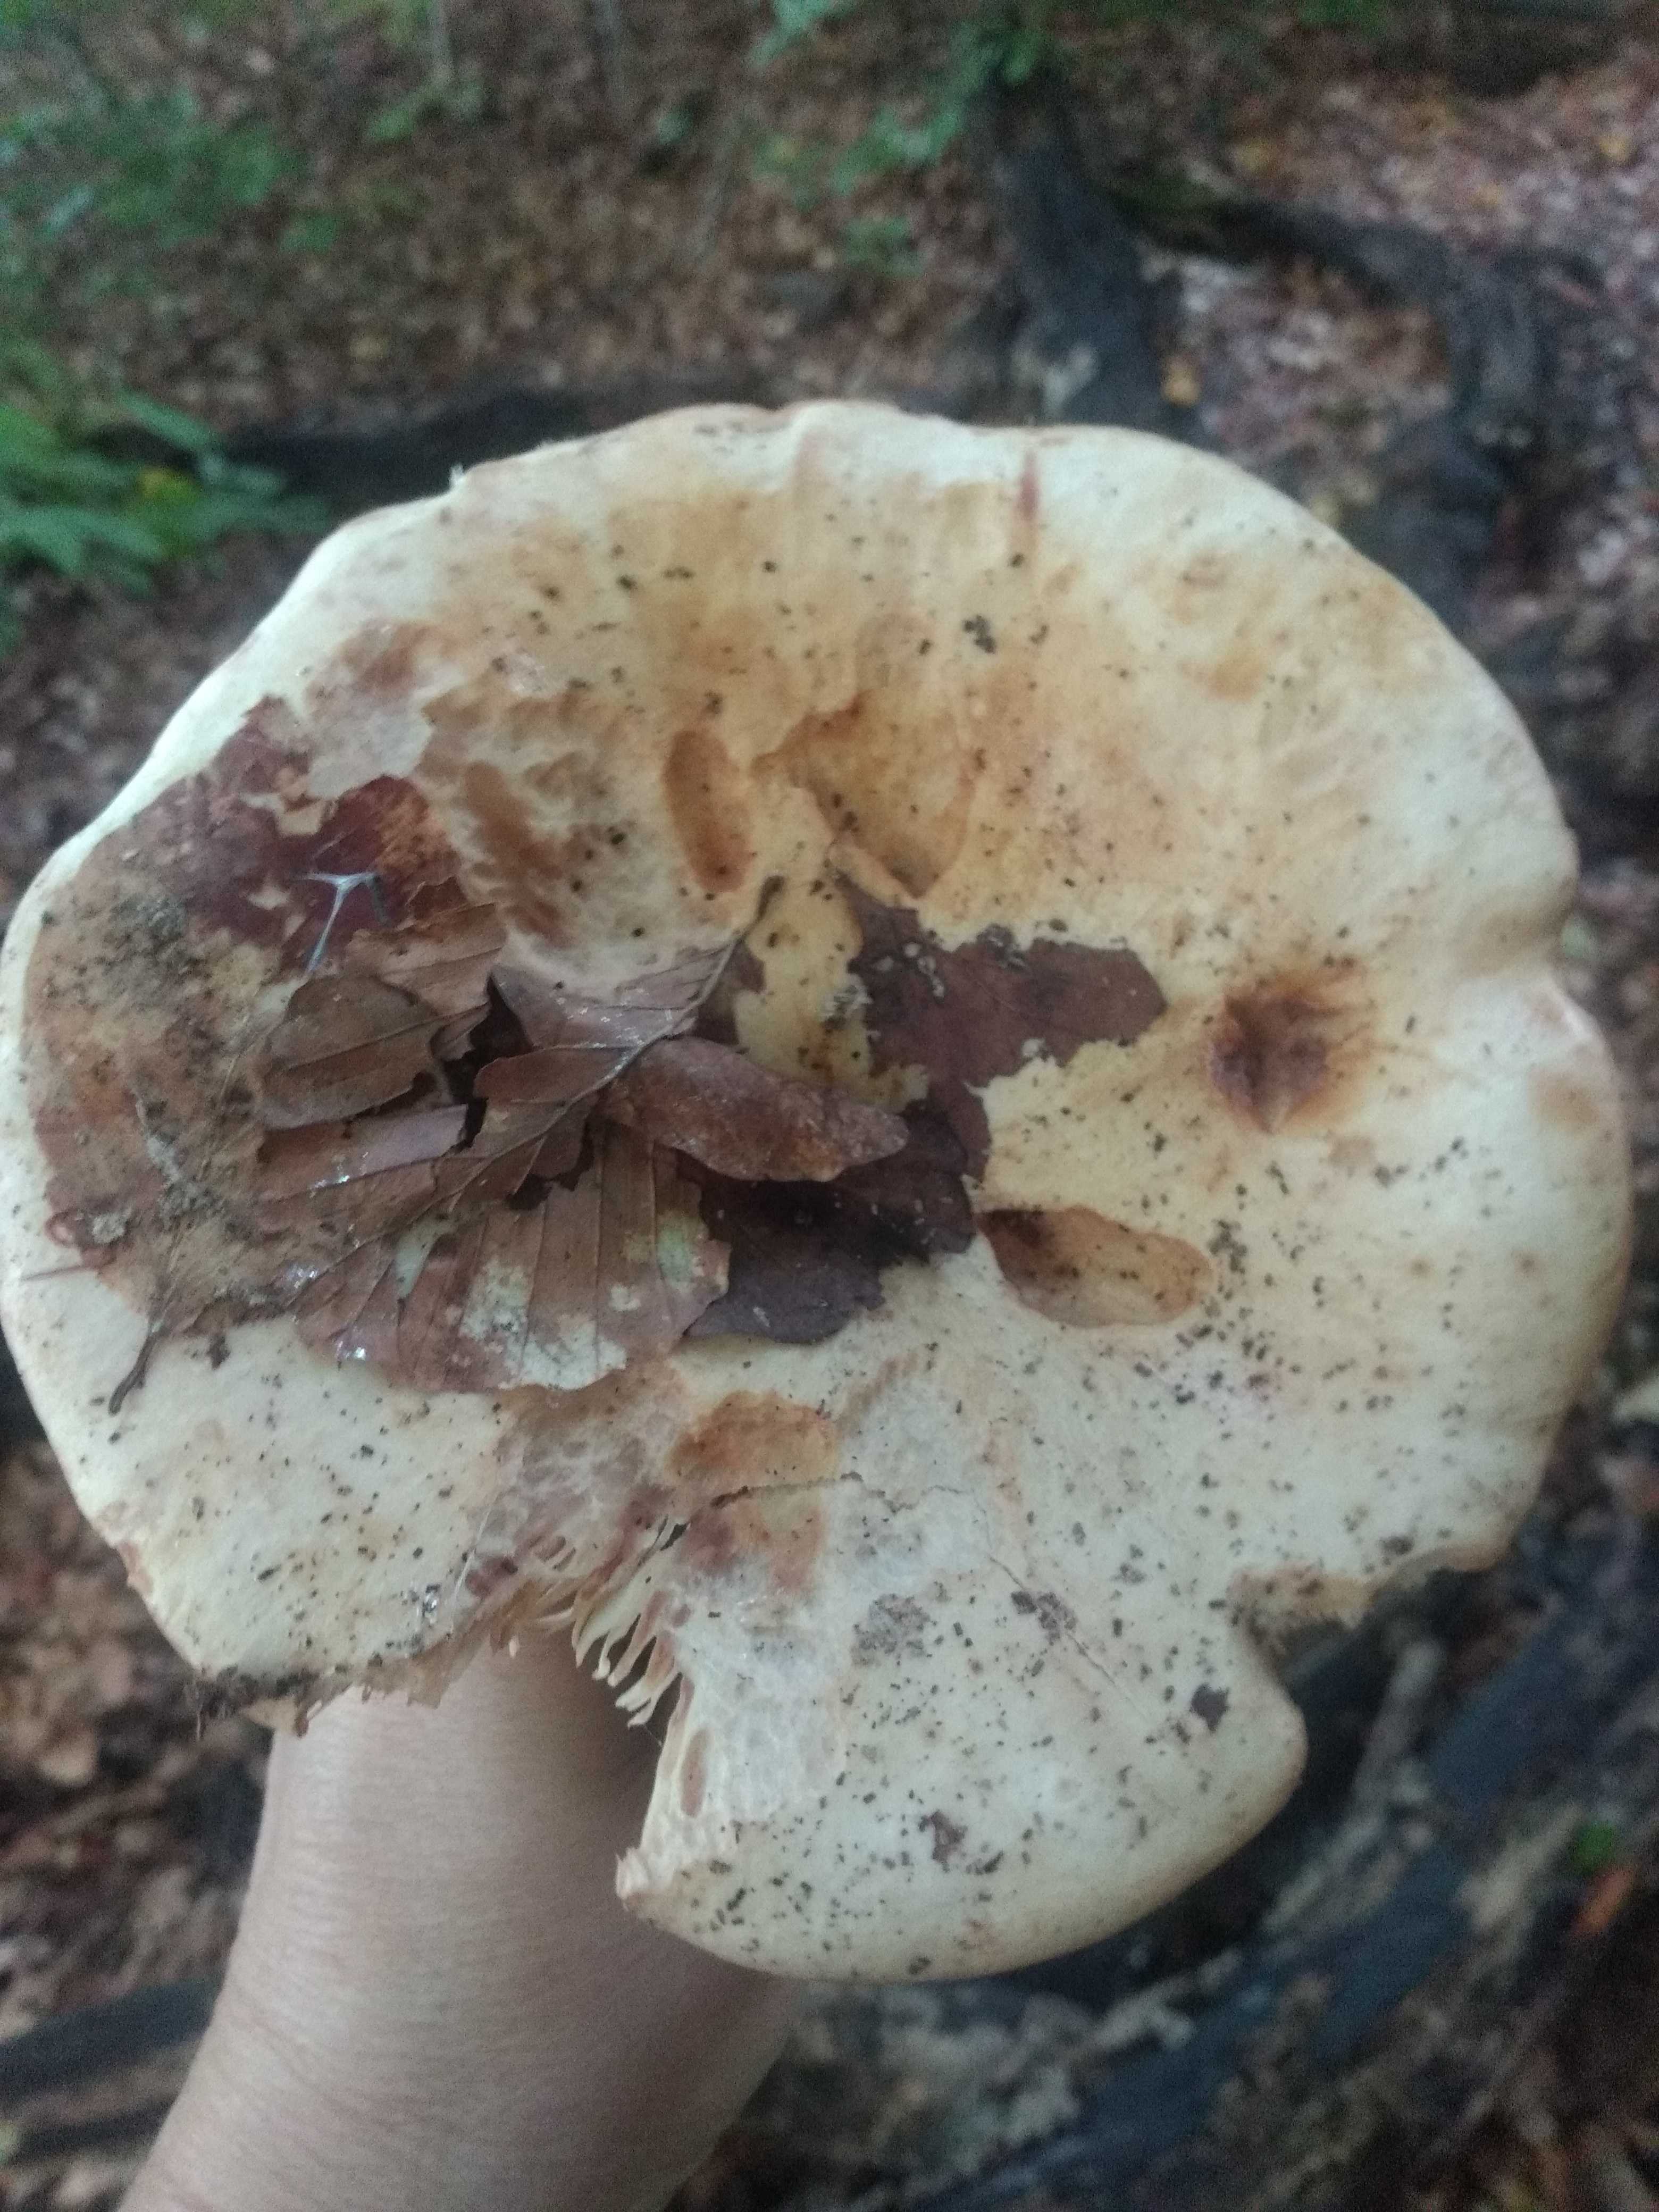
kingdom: Fungi
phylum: Basidiomycota
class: Agaricomycetes
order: Russulales
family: Russulaceae
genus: Lactarius
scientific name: Lactarius pallidus
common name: bleg mælkehat
